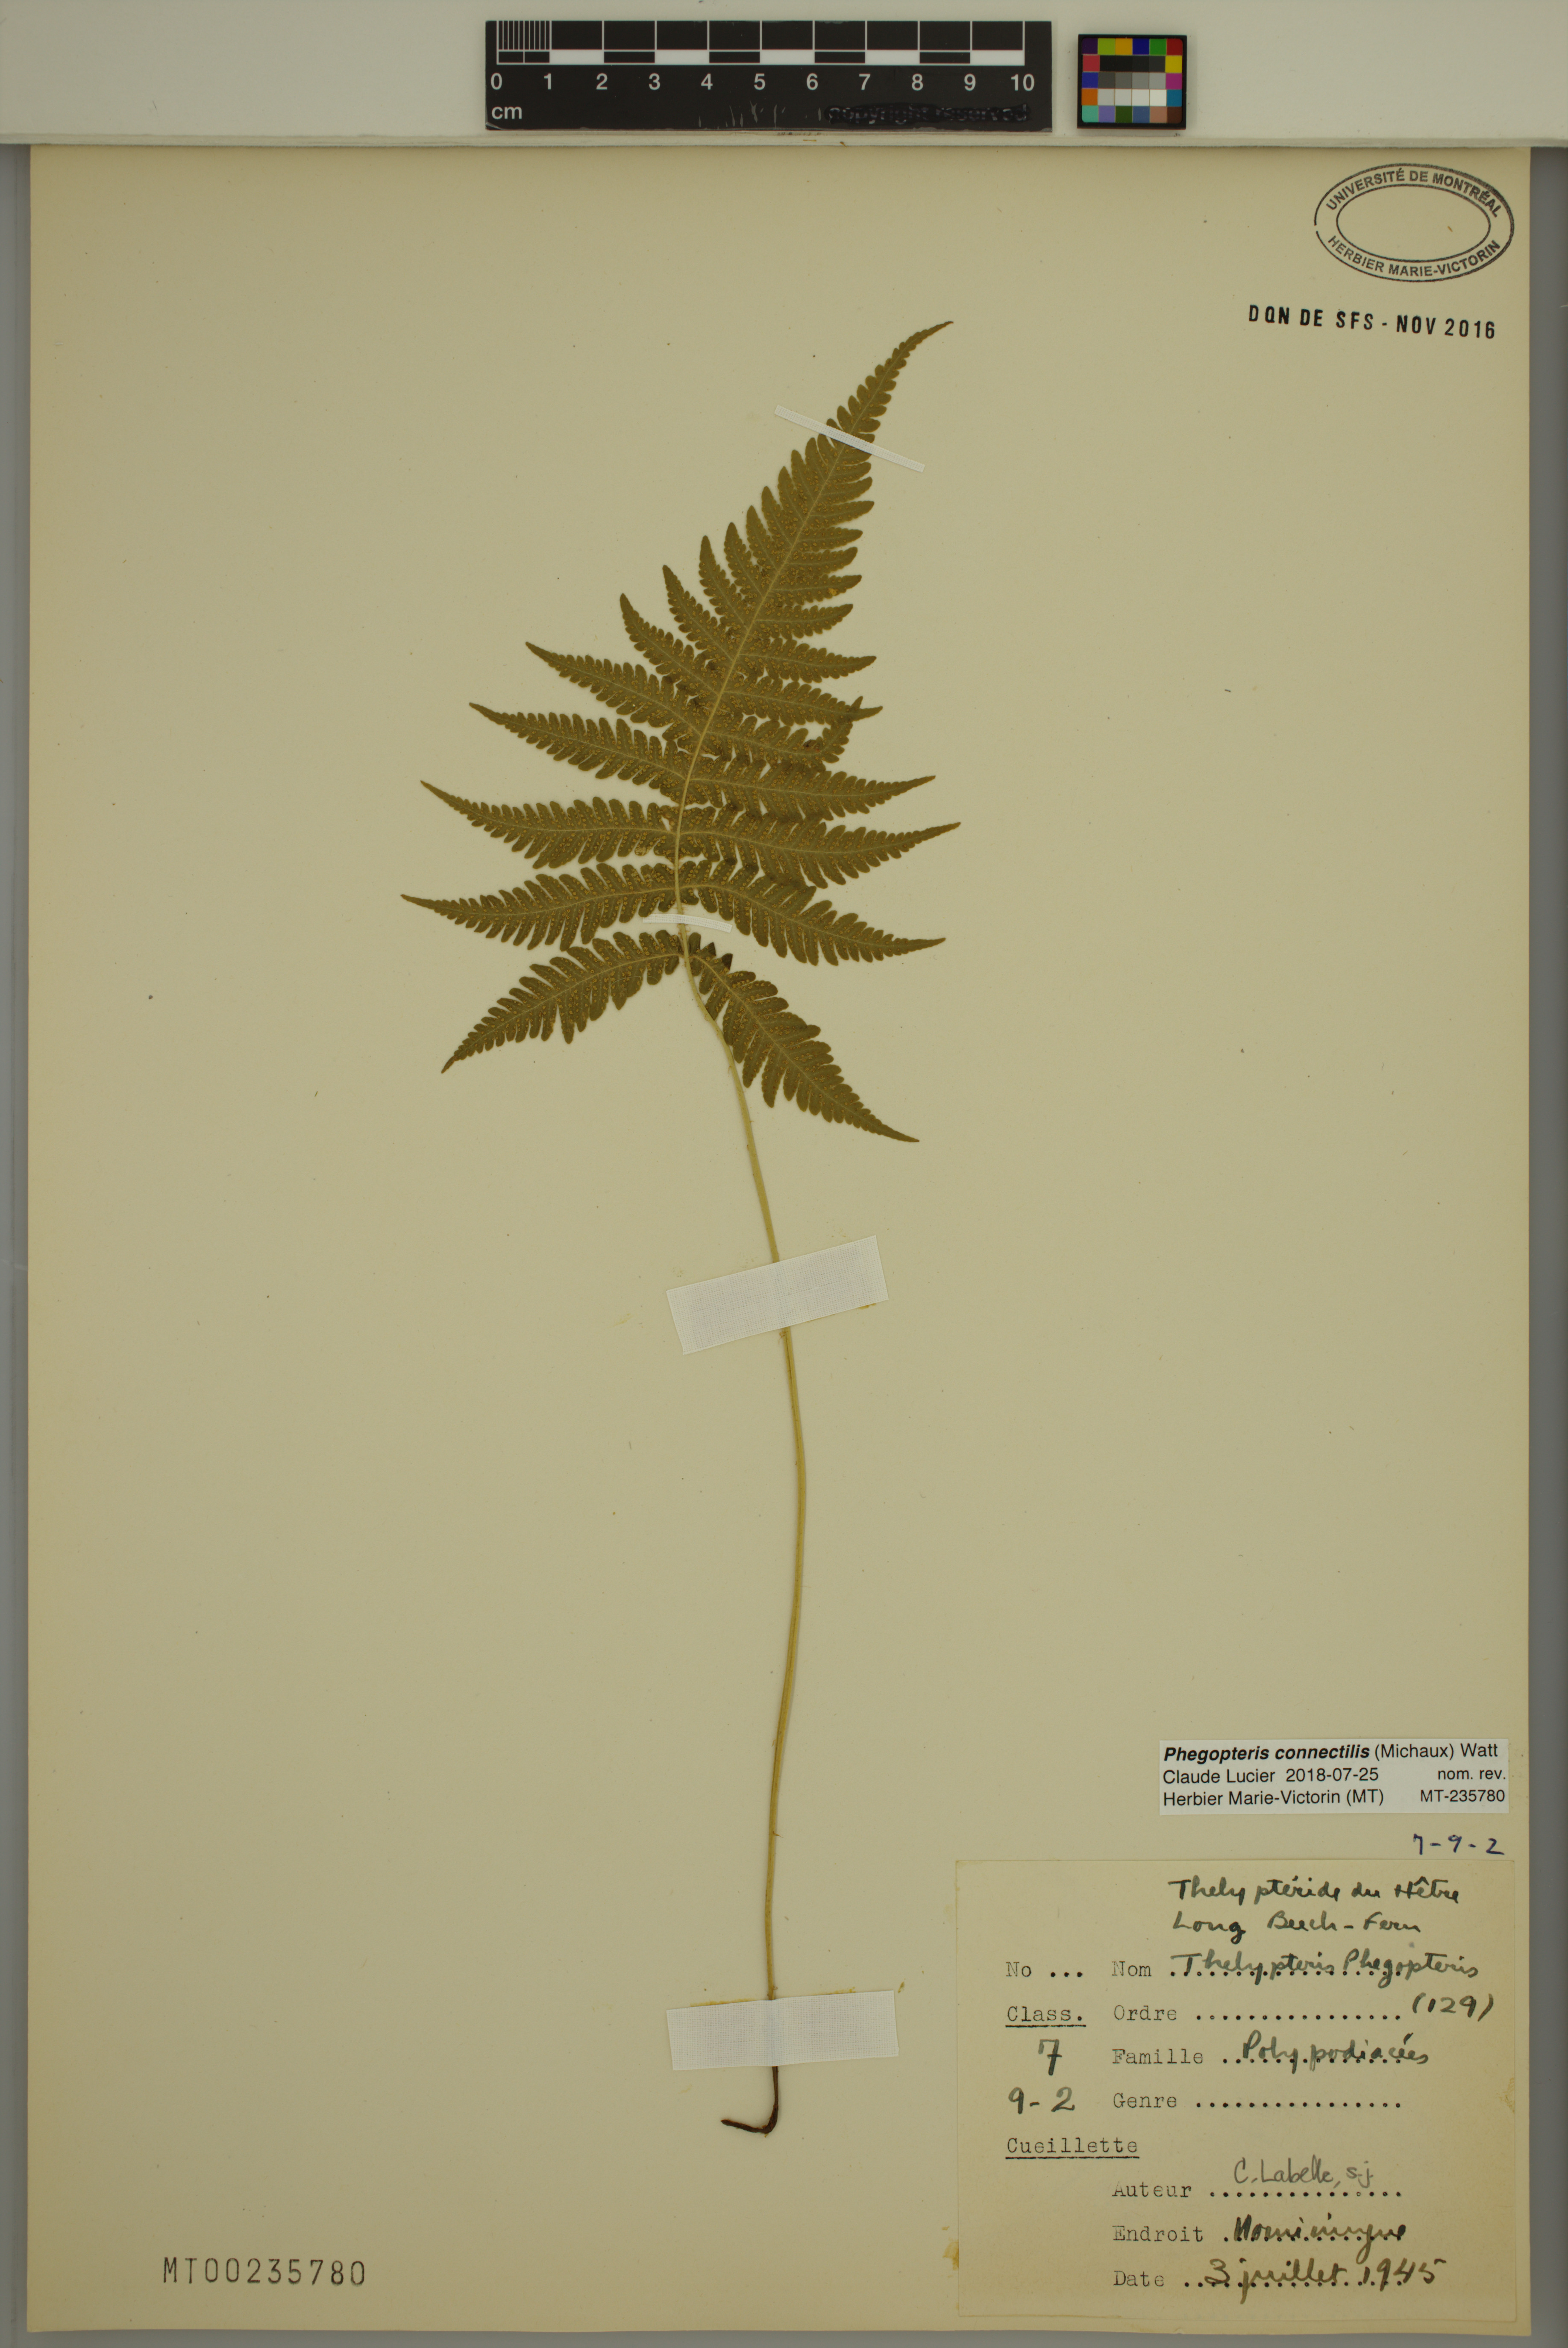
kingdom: Plantae
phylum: Tracheophyta
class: Polypodiopsida
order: Polypodiales
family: Thelypteridaceae
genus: Phegopteris
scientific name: Phegopteris connectilis
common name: Beech fern
